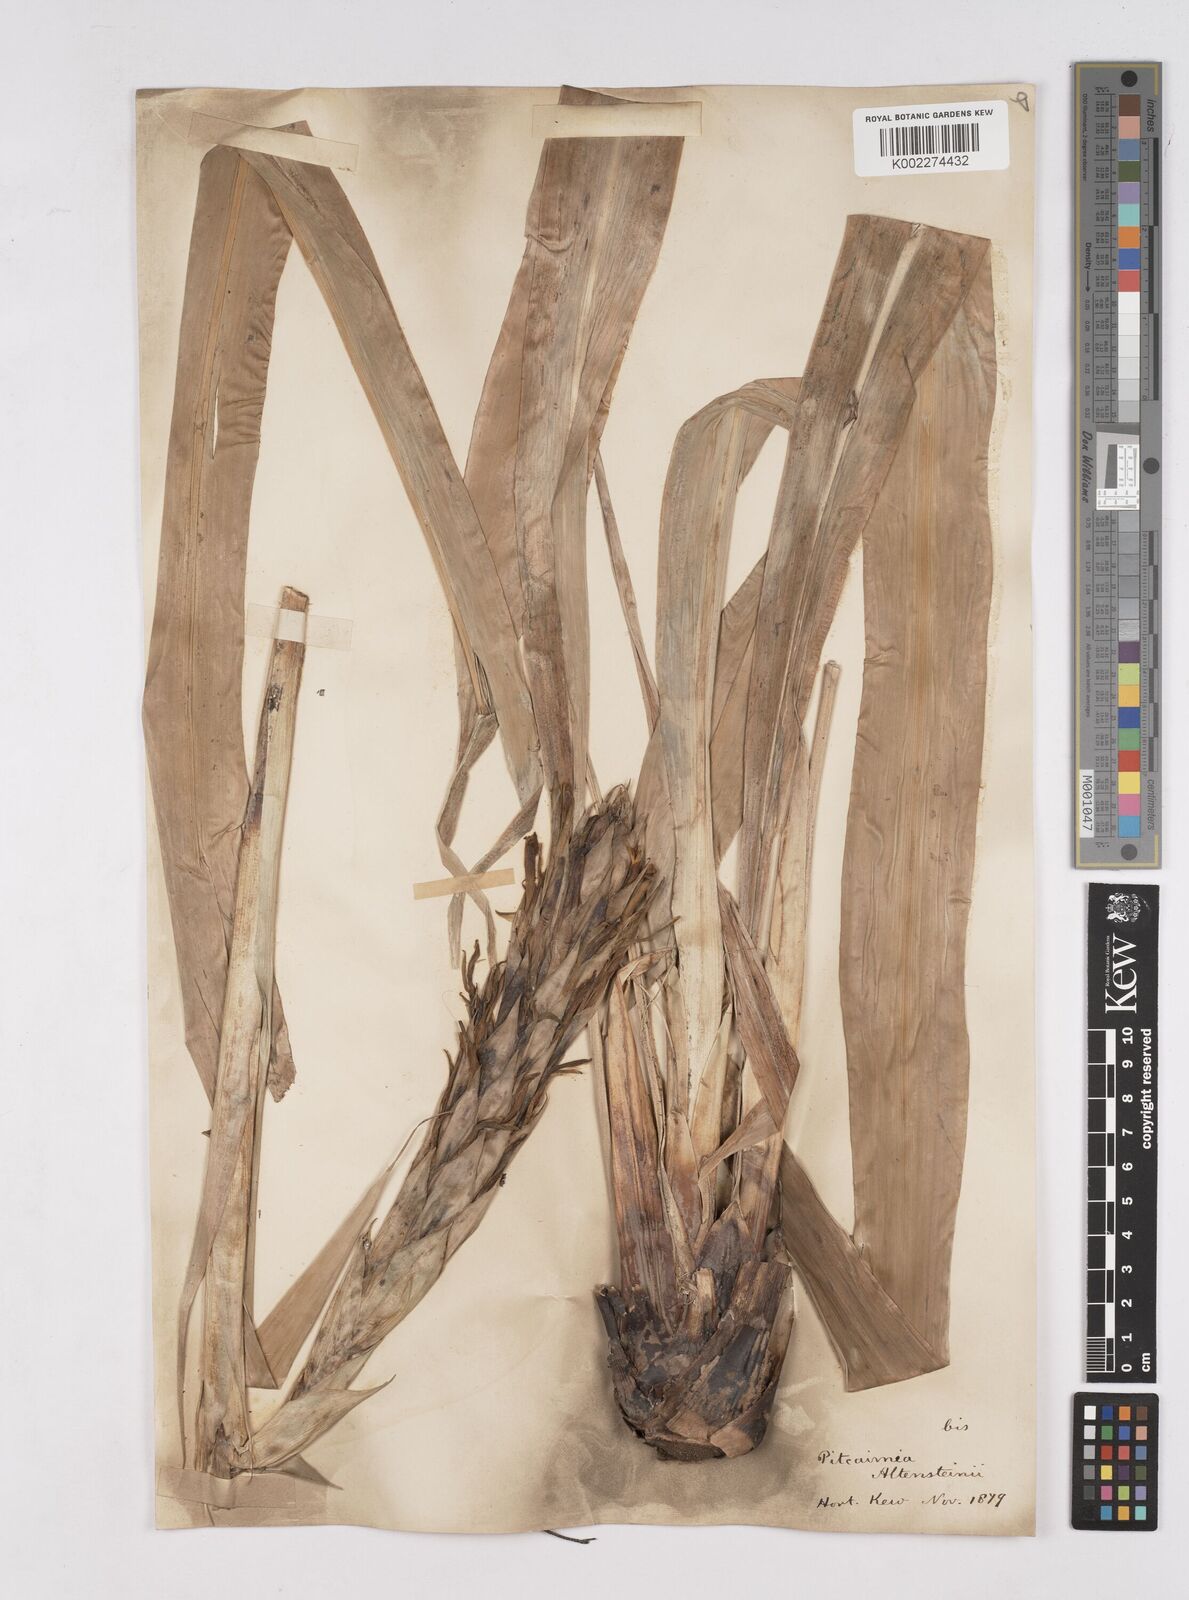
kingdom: Plantae
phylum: Tracheophyta
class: Liliopsida
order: Poales
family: Bromeliaceae
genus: Pitcairnia
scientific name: Pitcairnia altensteinii
